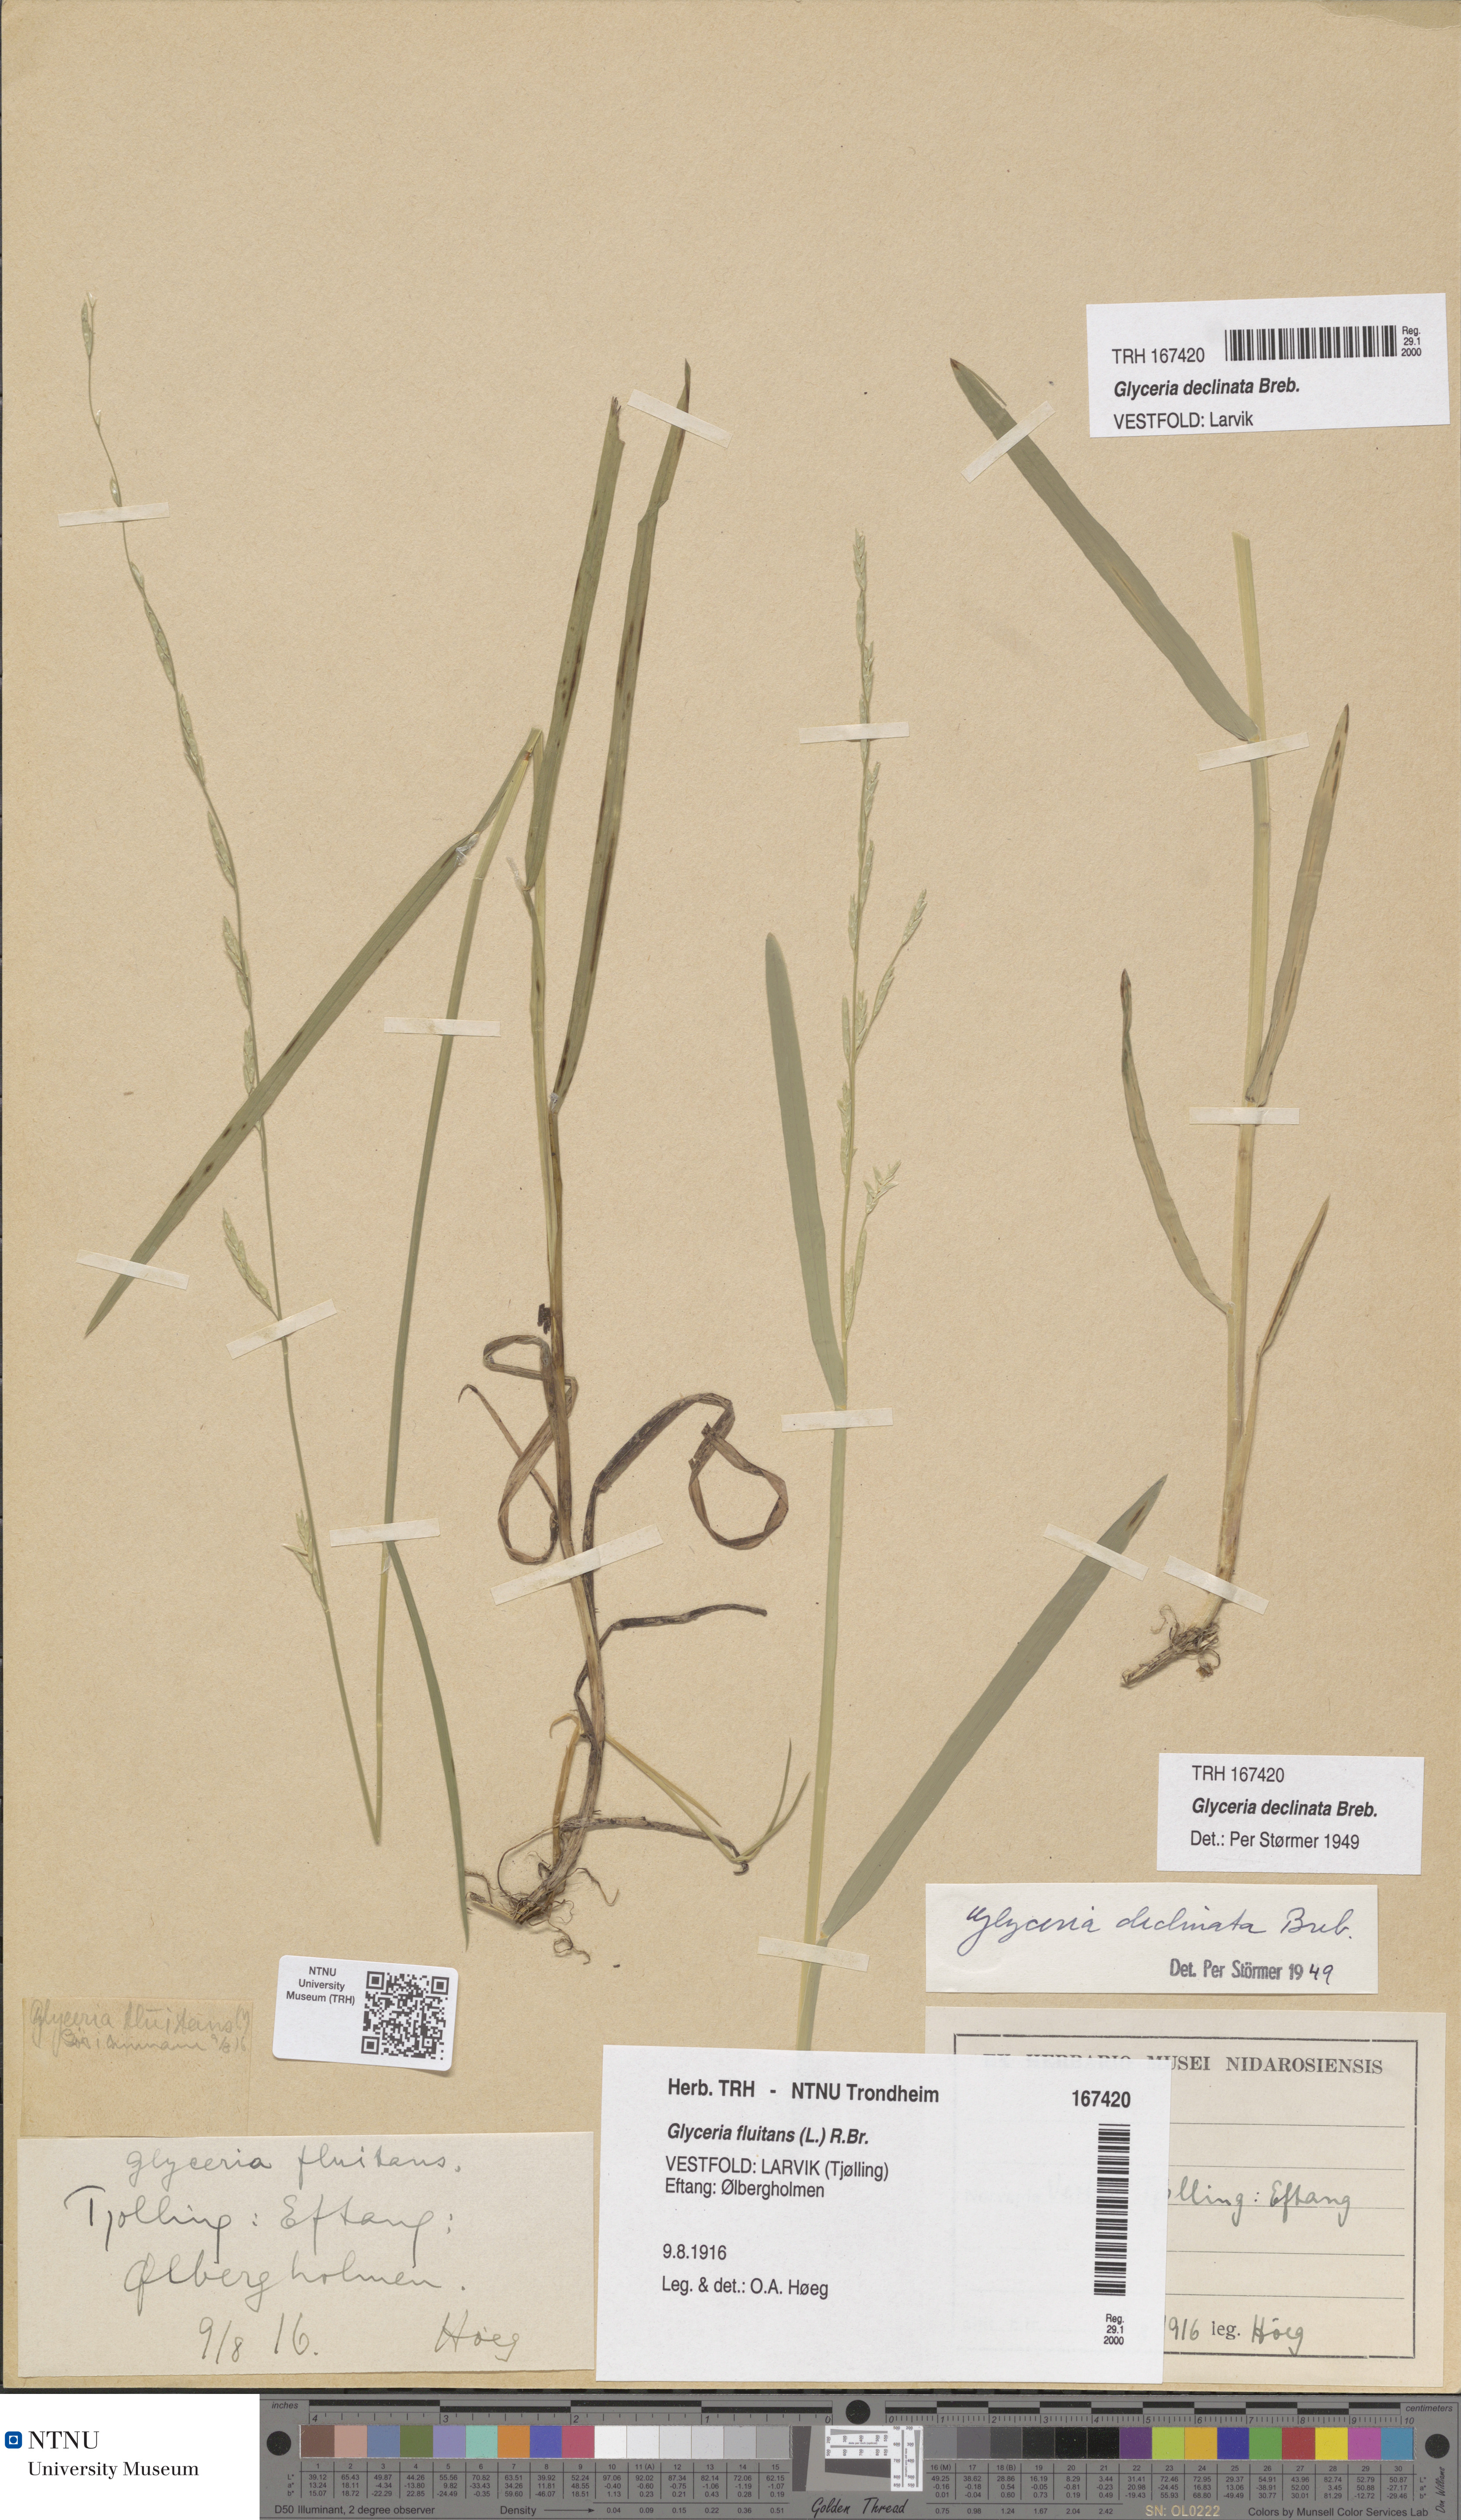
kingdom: Plantae
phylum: Tracheophyta
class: Liliopsida
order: Poales
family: Poaceae
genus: Glyceria
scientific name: Glyceria declinata
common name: Small sweet-grass
